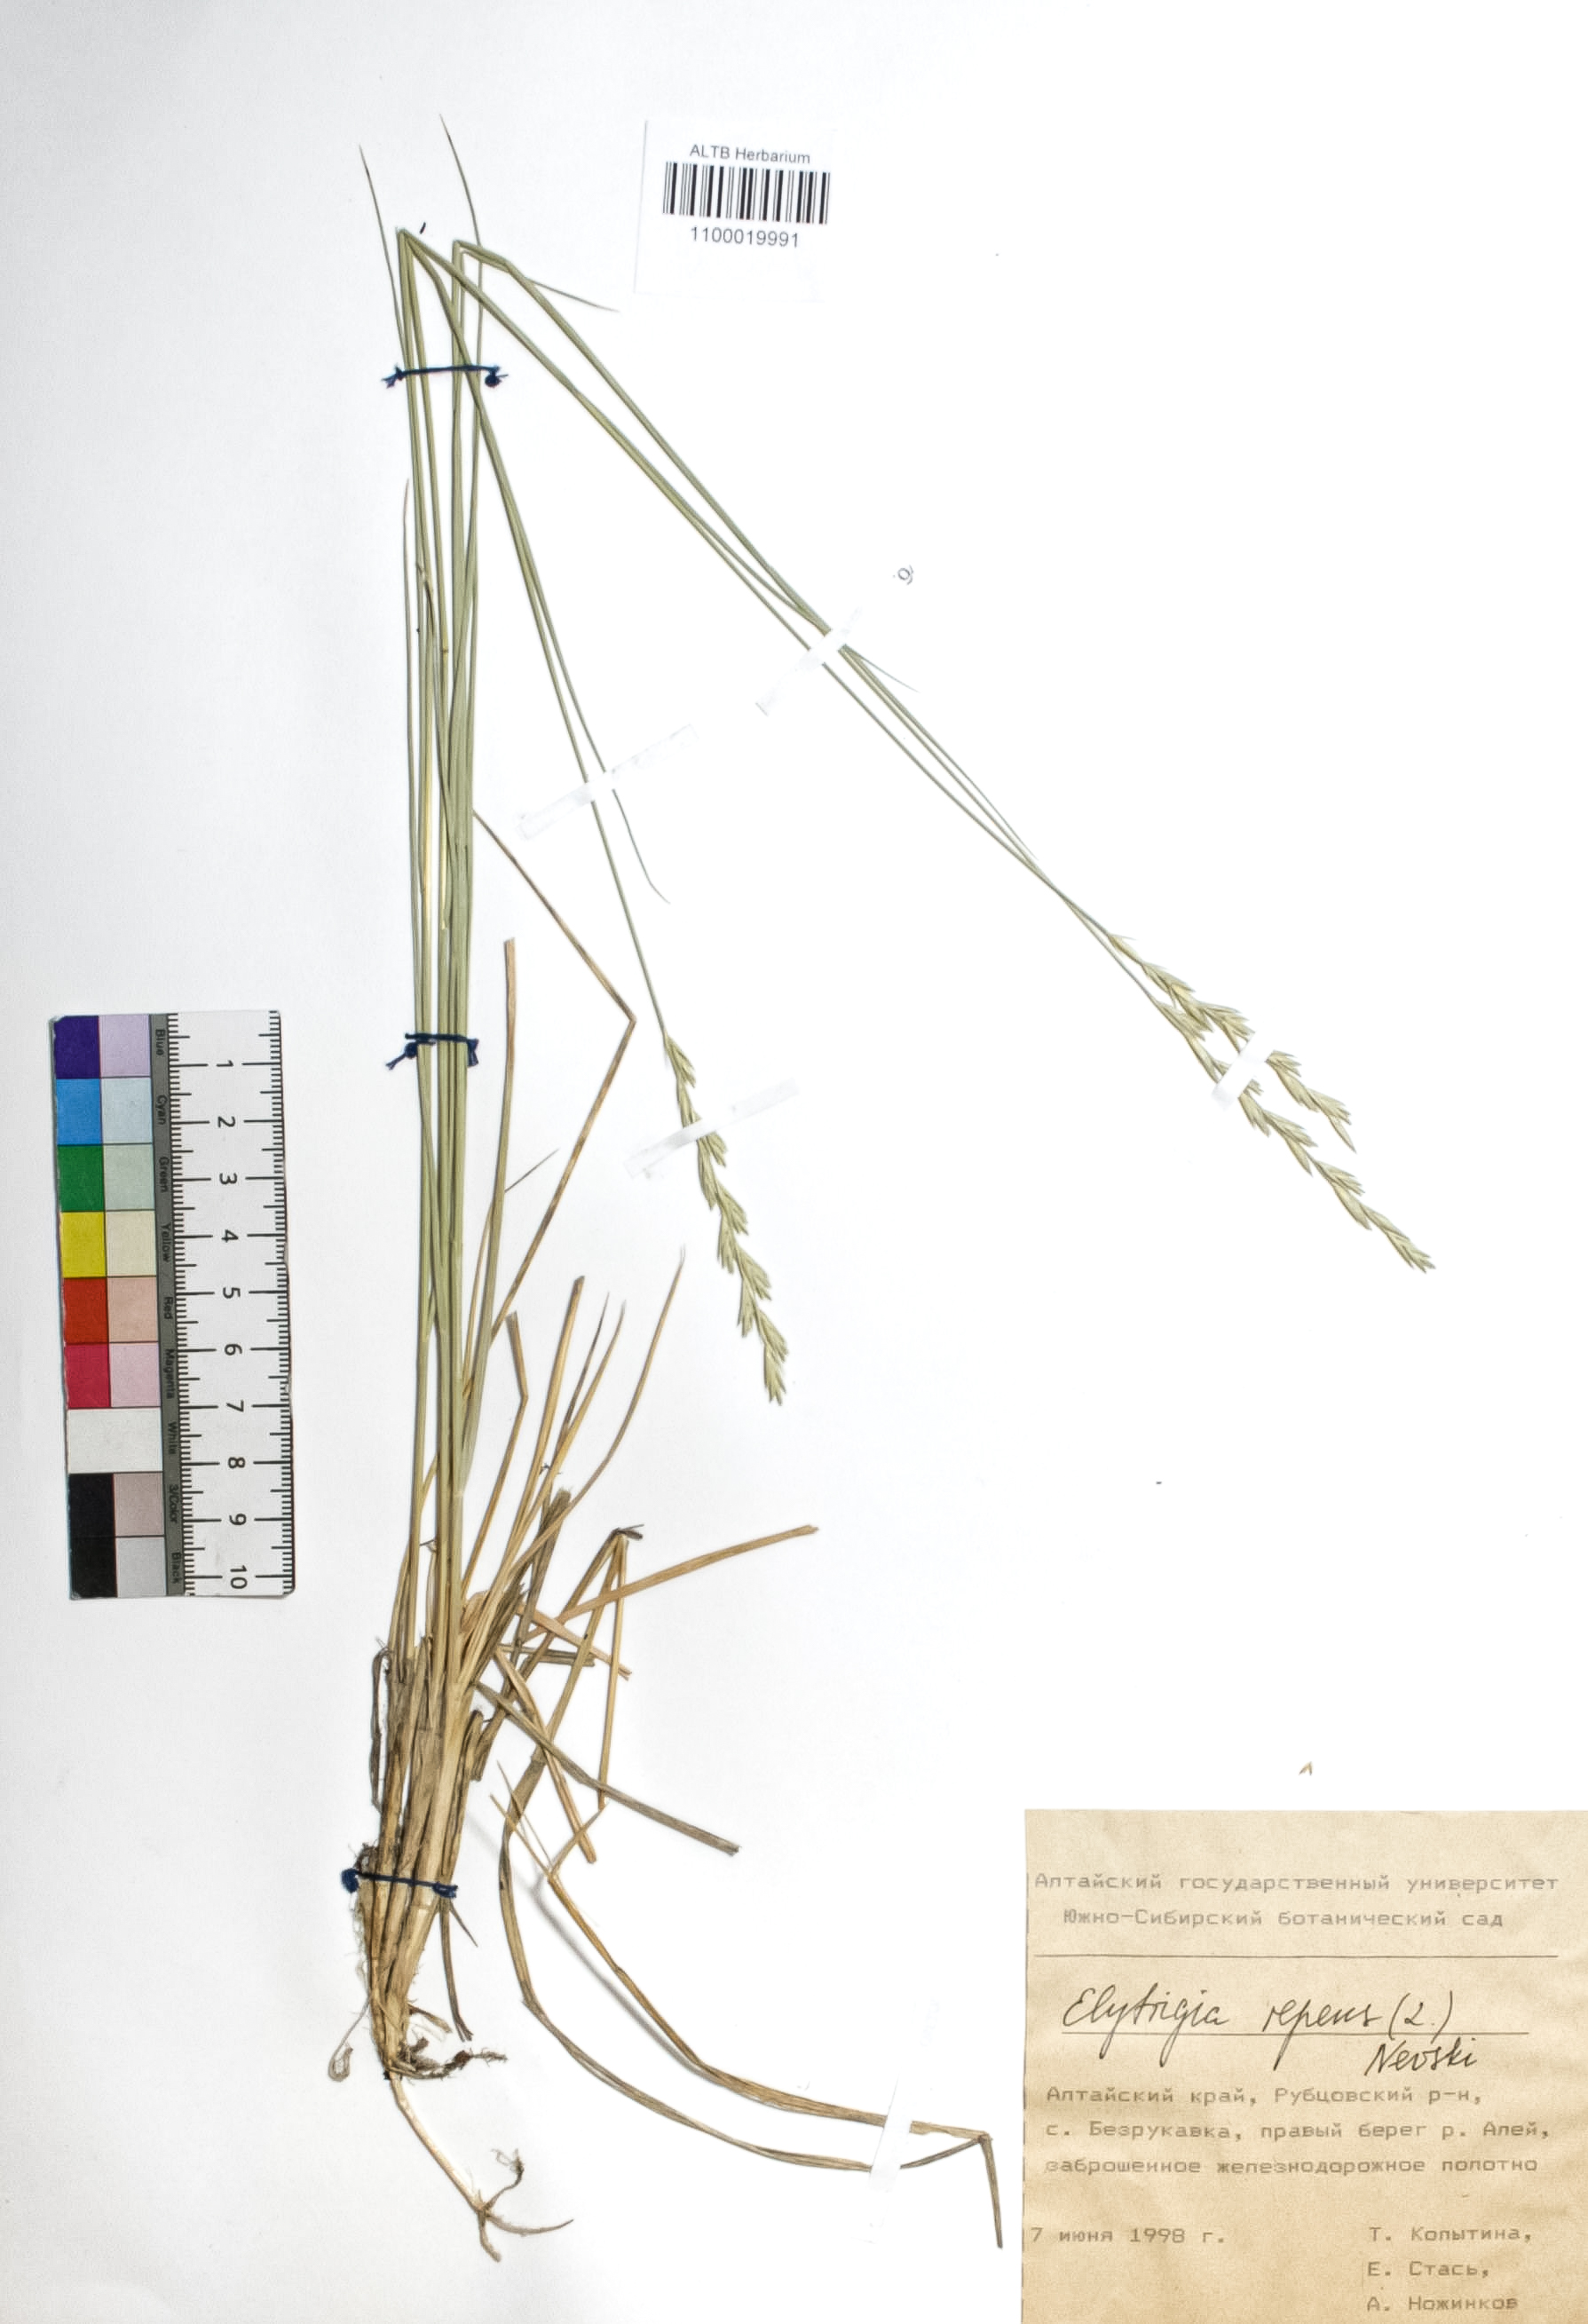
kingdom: Plantae
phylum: Tracheophyta
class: Liliopsida
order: Poales
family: Poaceae
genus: Elymus
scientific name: Elymus repens
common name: Quackgrass
